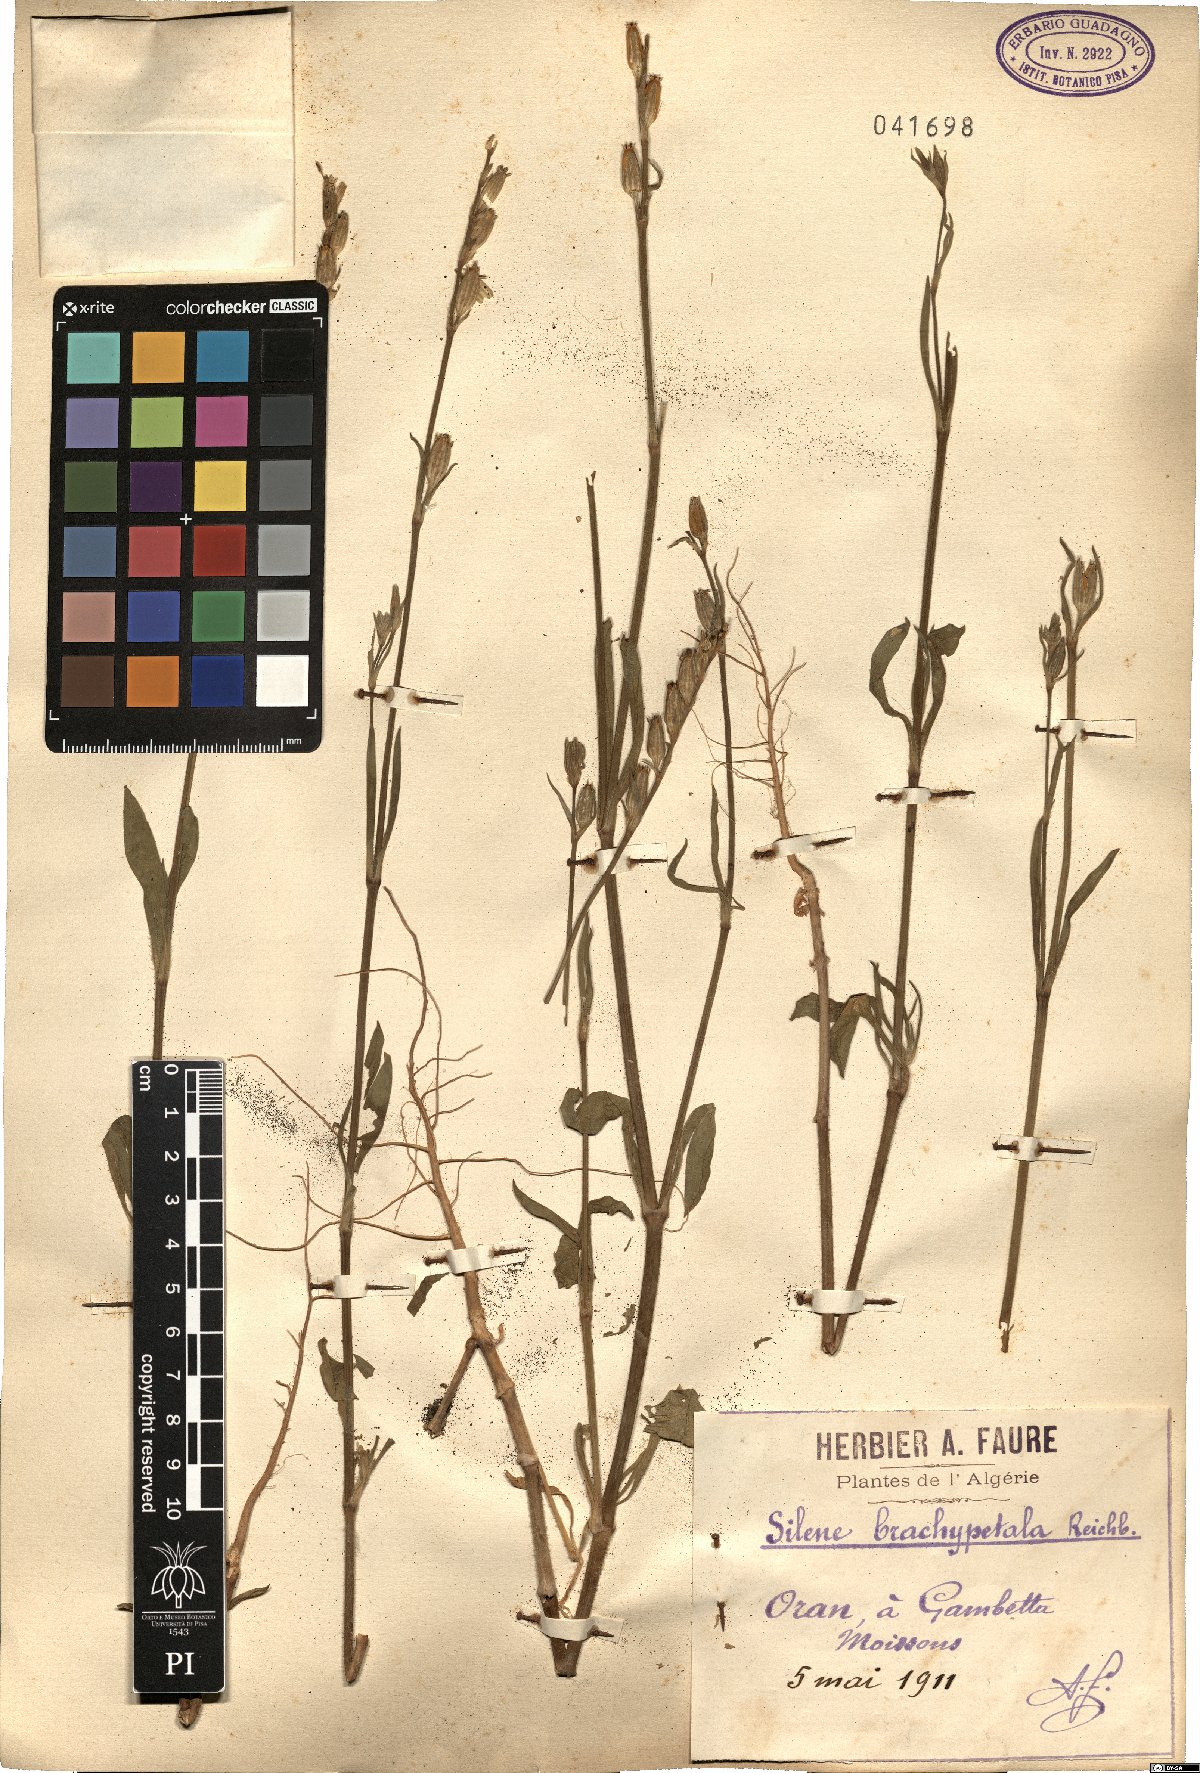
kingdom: Plantae
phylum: Tracheophyta
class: Magnoliopsida
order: Caryophyllales
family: Caryophyllaceae
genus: Silene
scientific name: Silene nocturna
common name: Mediterranean catchfly
